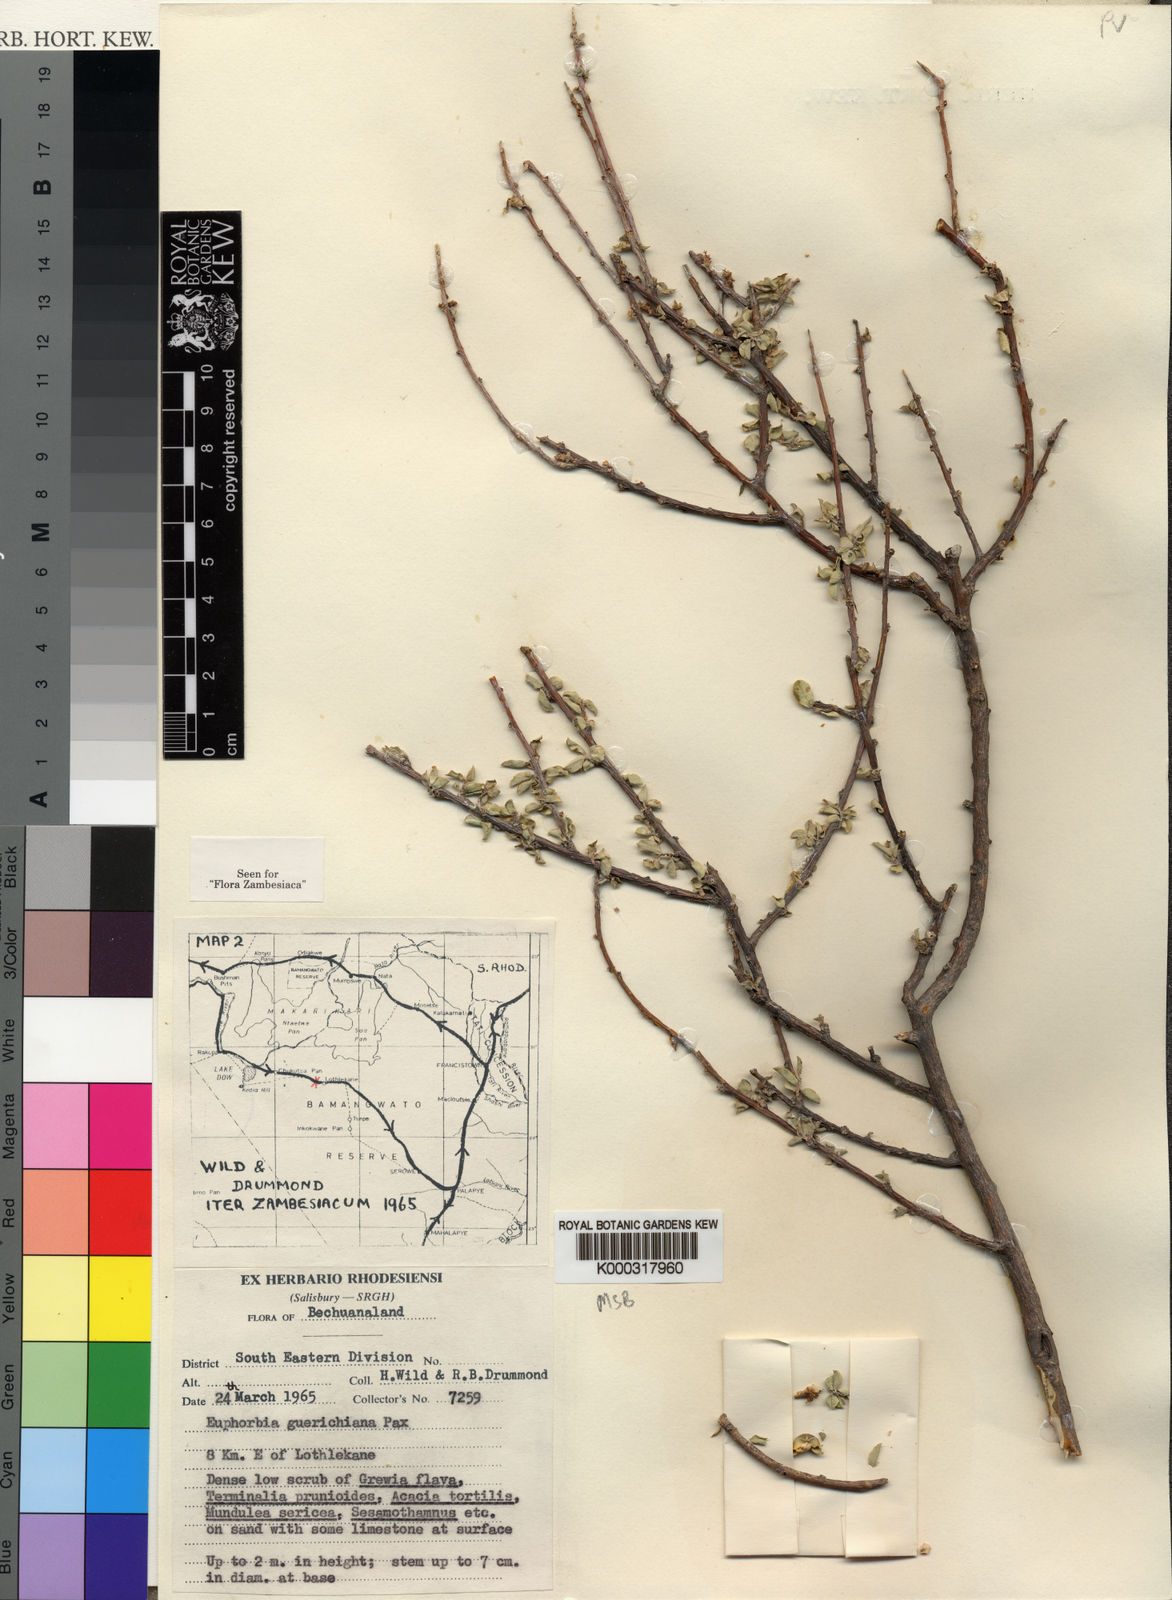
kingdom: Plantae
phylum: Tracheophyta
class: Magnoliopsida
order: Malpighiales
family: Euphorbiaceae
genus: Euphorbia
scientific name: Euphorbia
